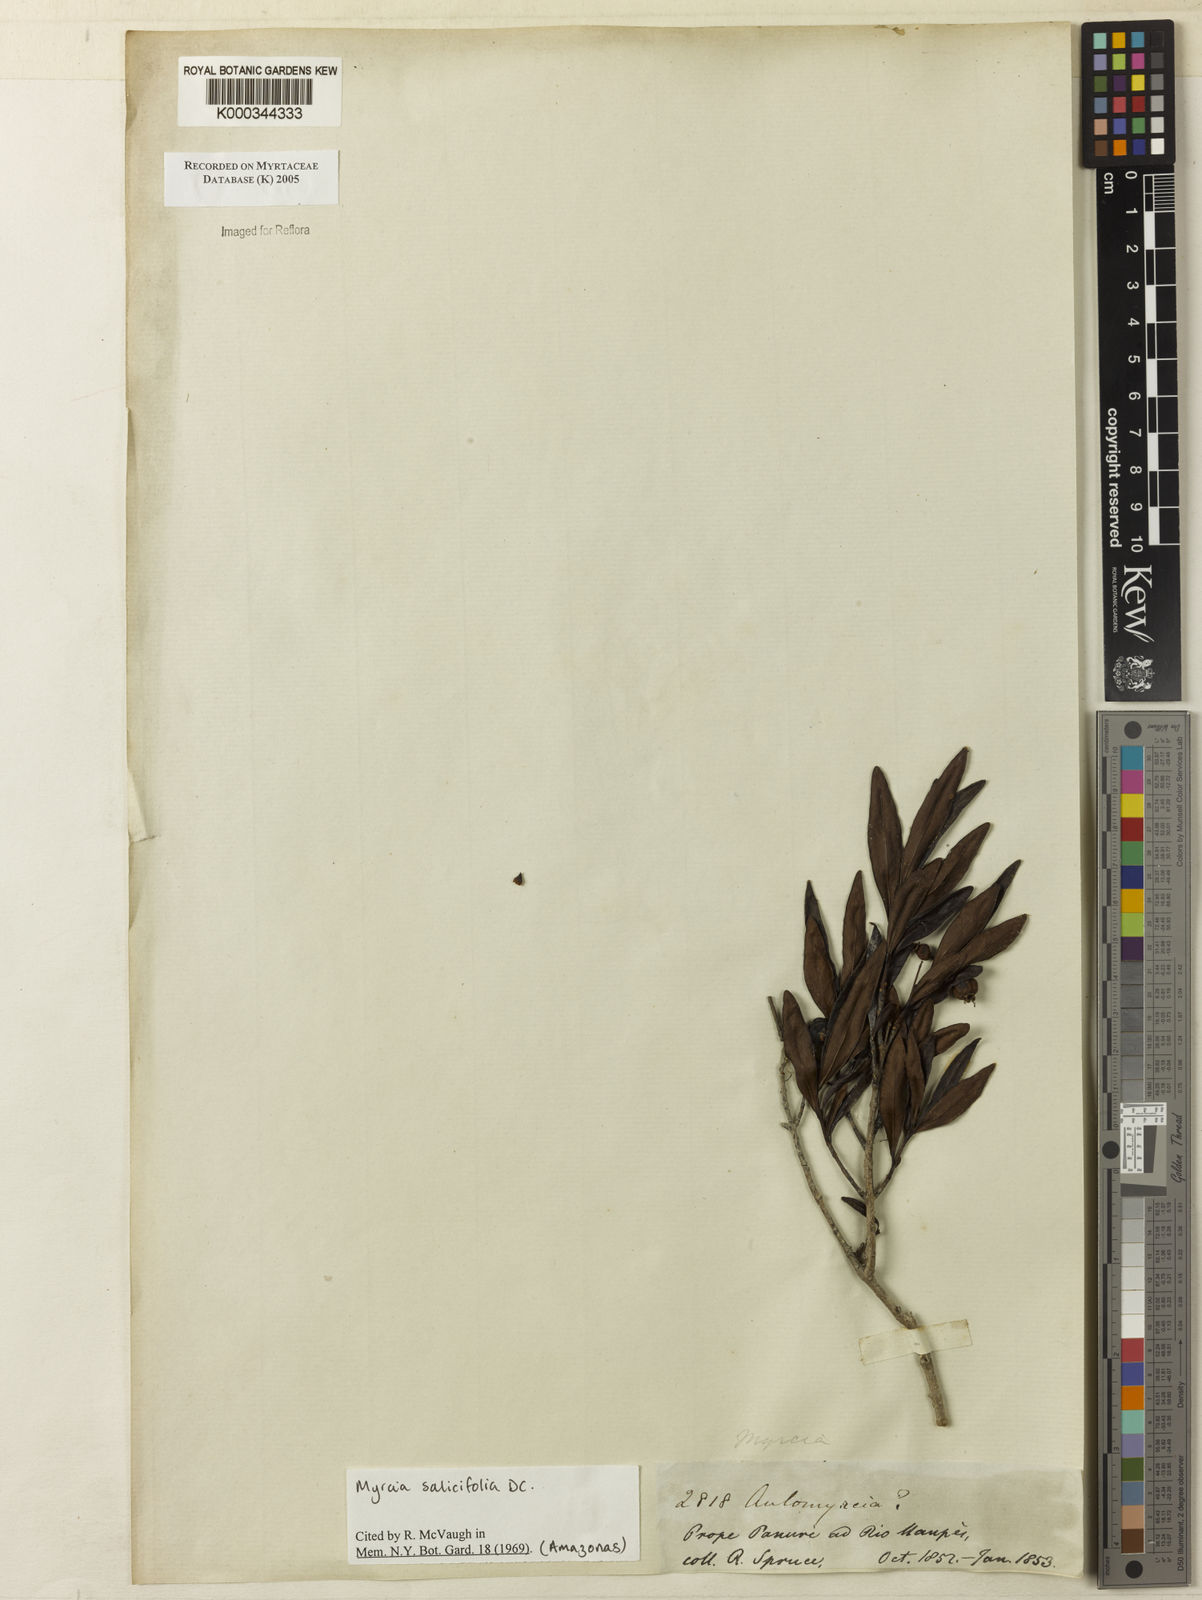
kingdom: Plantae
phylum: Tracheophyta
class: Magnoliopsida
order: Myrtales
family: Myrtaceae
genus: Myrcia
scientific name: Myrcia salicifolia
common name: Insulin plant
